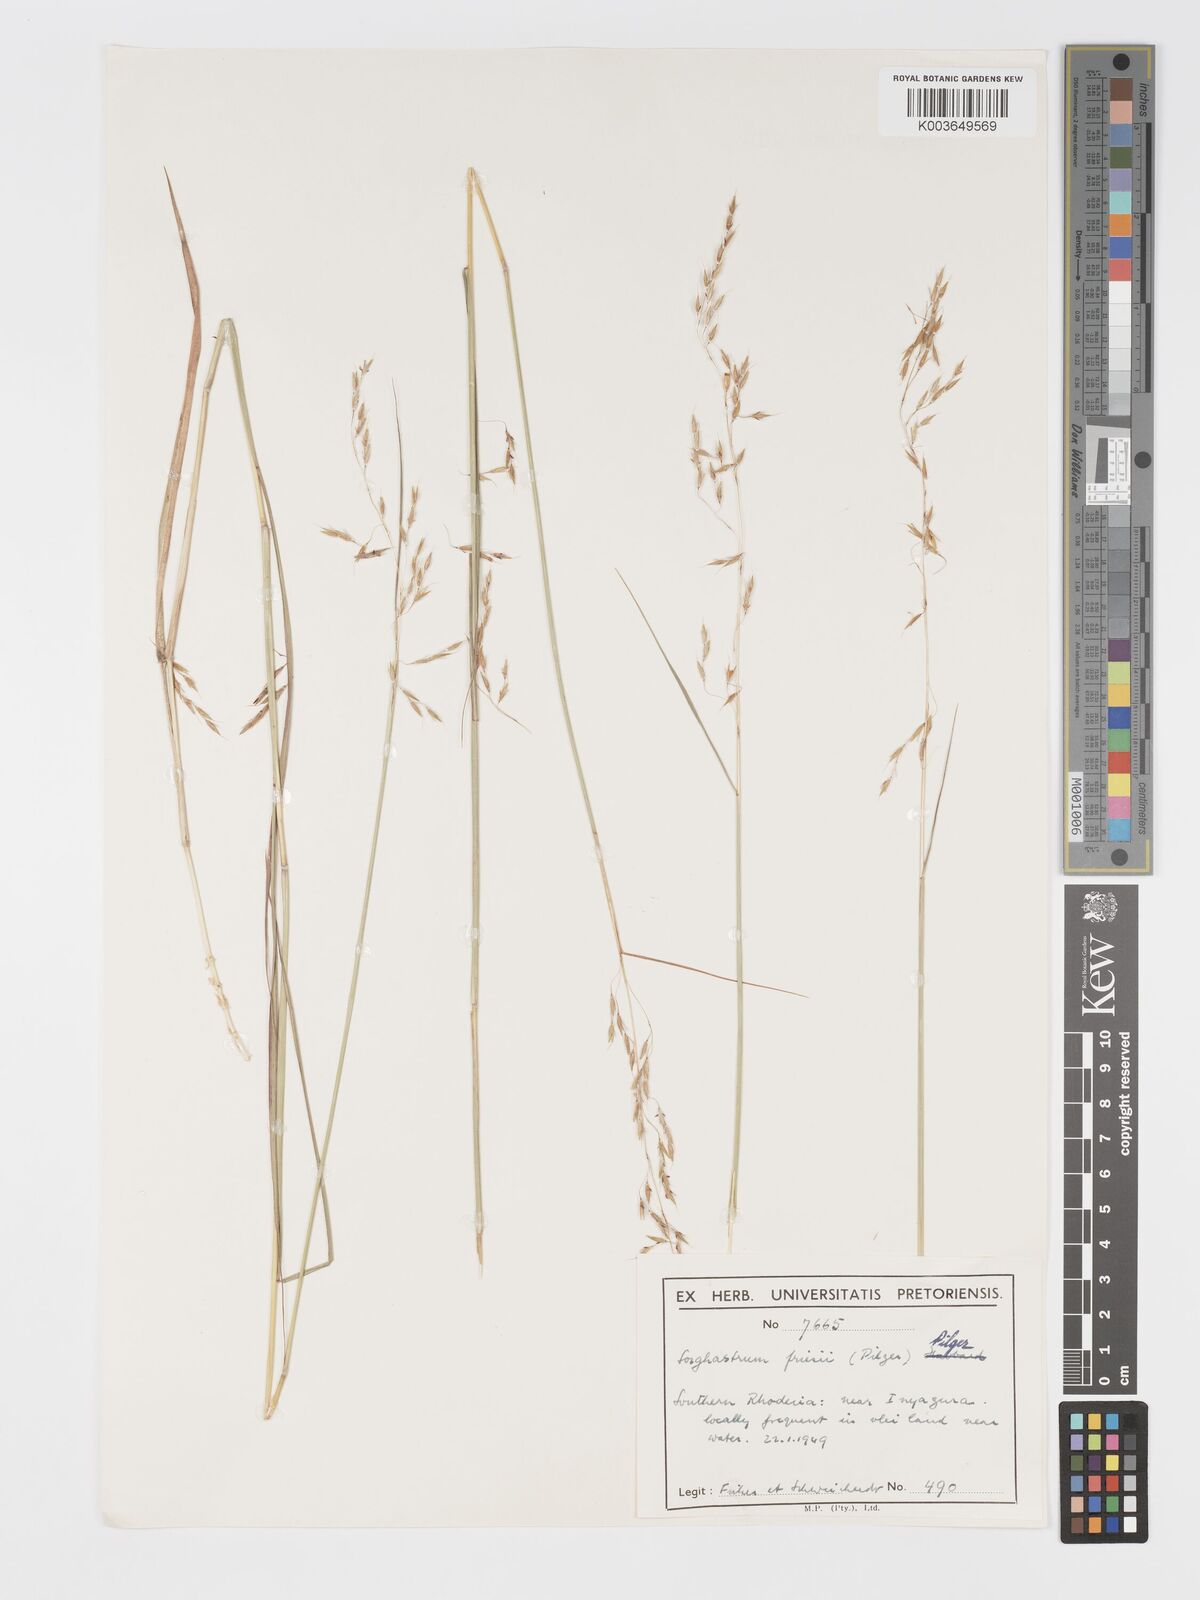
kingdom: Plantae
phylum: Tracheophyta
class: Liliopsida
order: Poales
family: Poaceae
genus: Sorghastrum
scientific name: Sorghastrum nudipes
